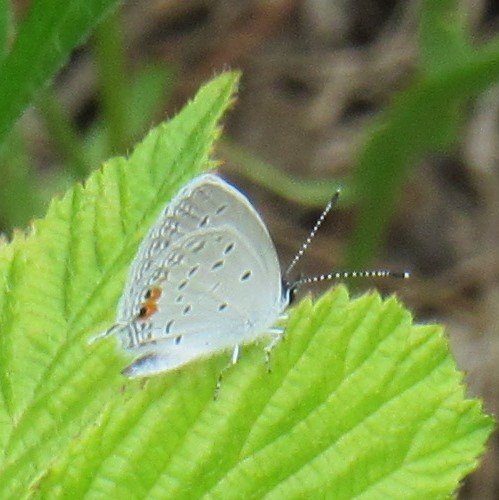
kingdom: Animalia
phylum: Arthropoda
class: Insecta
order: Lepidoptera
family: Lycaenidae
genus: Elkalyce
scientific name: Elkalyce comyntas
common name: Eastern Tailed-Blue
